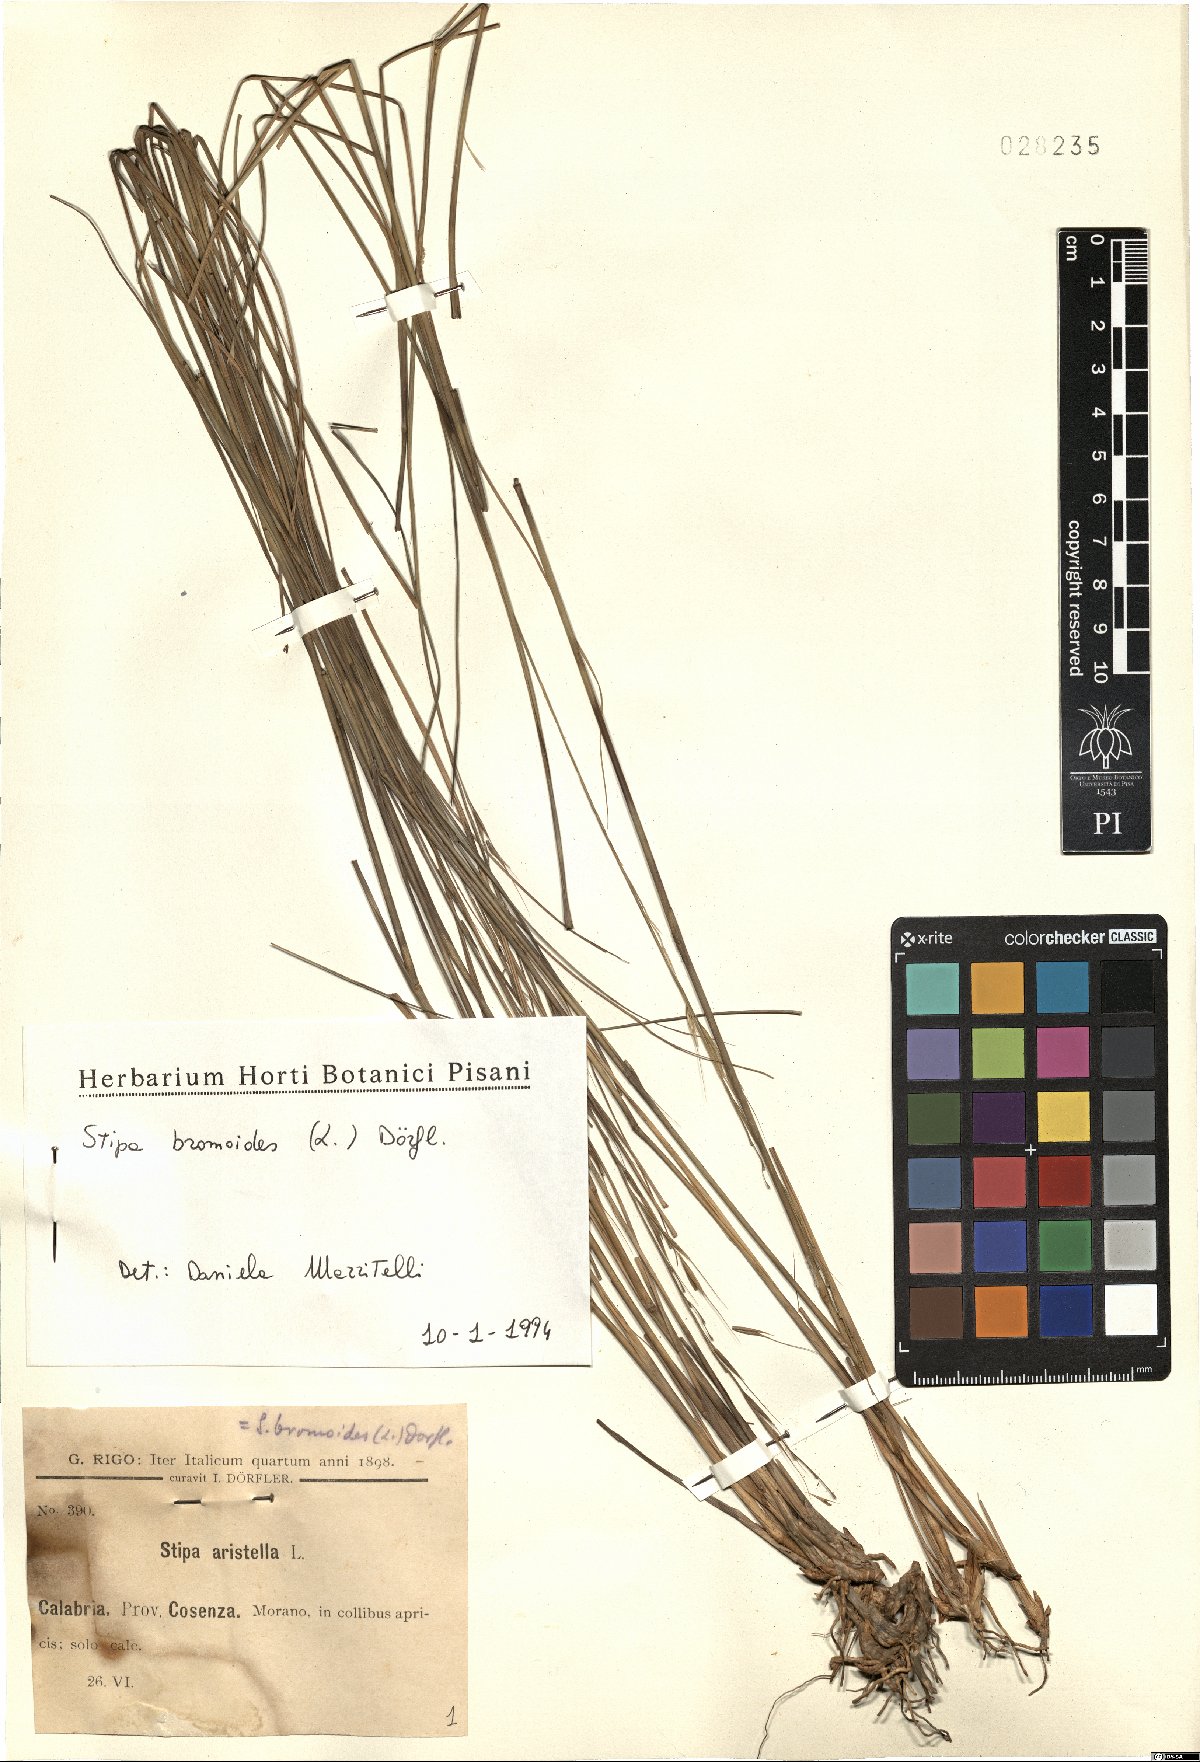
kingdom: Plantae
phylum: Tracheophyta
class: Liliopsida
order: Poales
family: Poaceae
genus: Achnatherum
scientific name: Achnatherum bromoides
